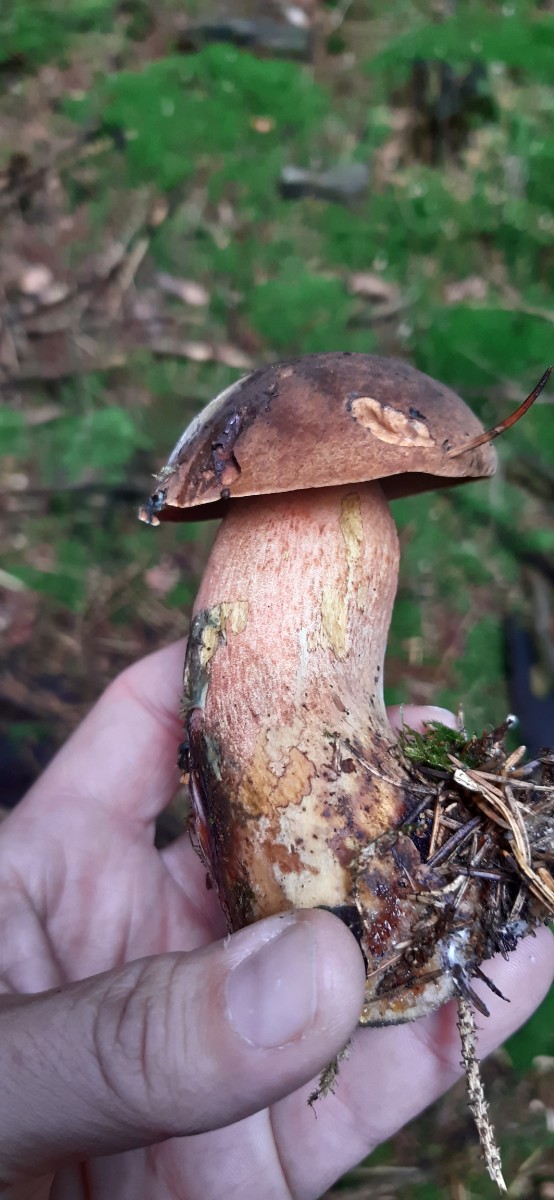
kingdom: Fungi
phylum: Basidiomycota
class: Agaricomycetes
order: Boletales
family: Boletaceae
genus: Neoboletus
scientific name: Neoboletus erythropus
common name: punktstokket indigorørhat
